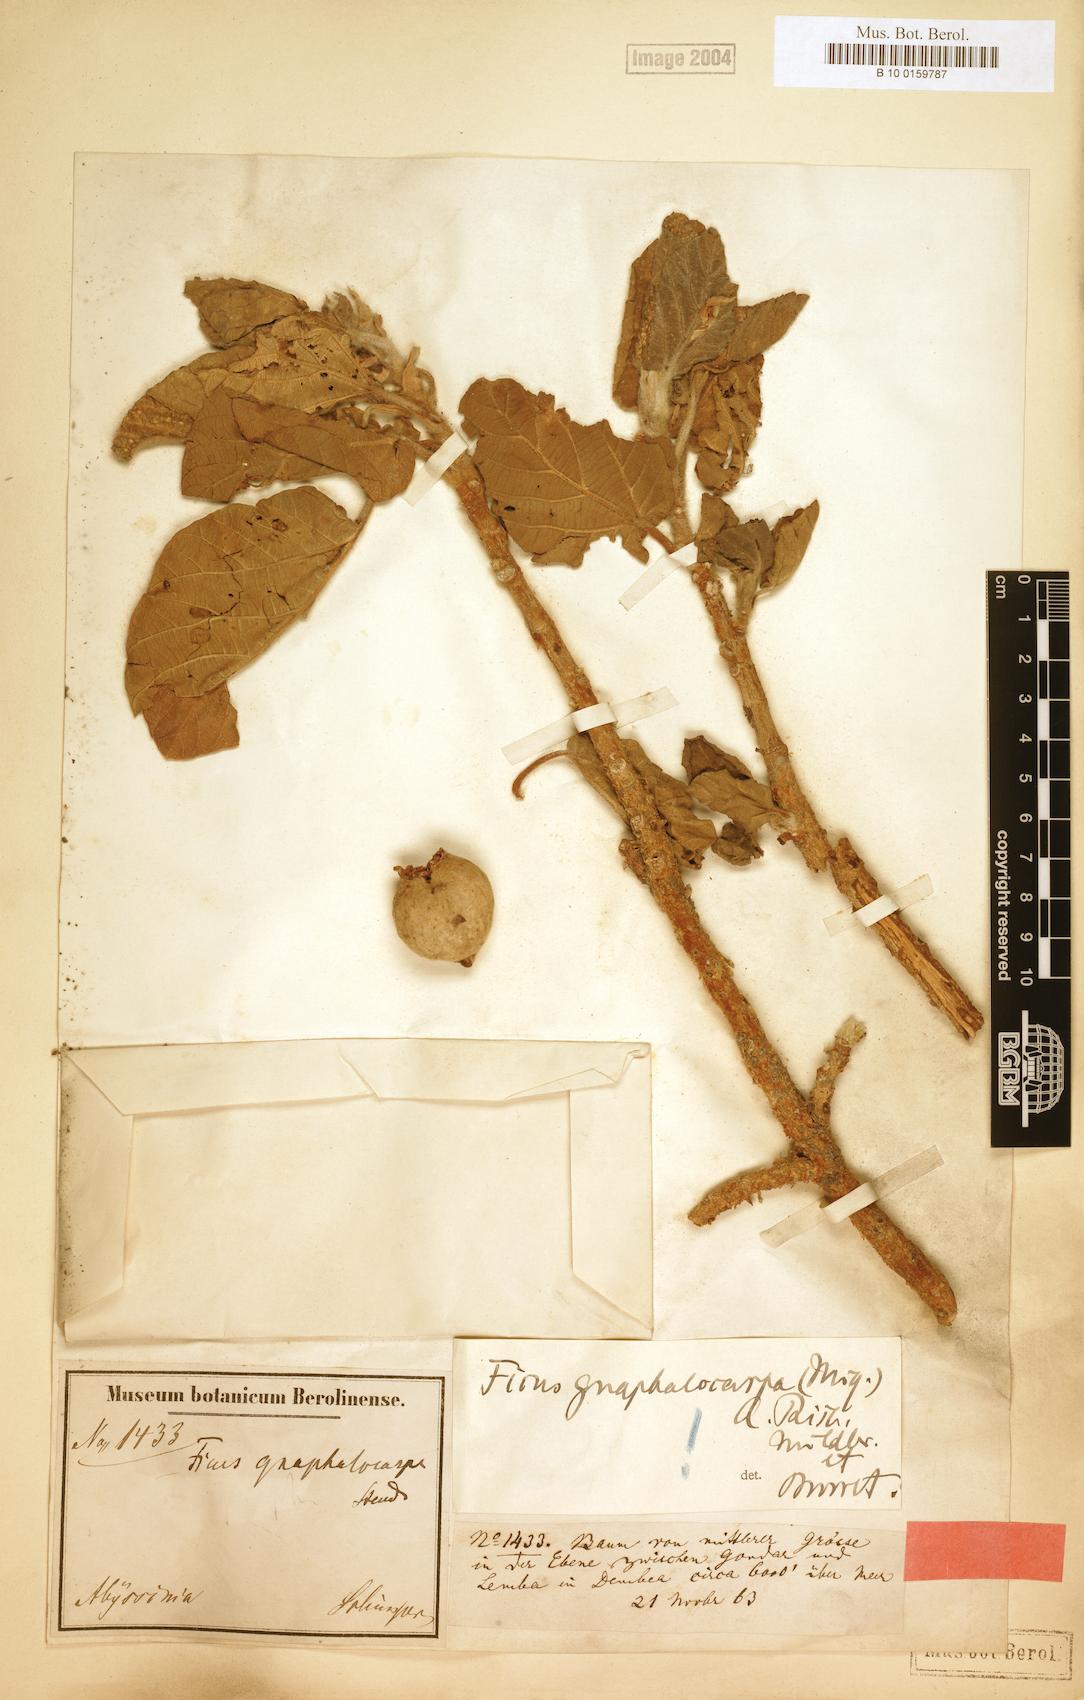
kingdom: Plantae
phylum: Tracheophyta
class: Magnoliopsida
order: Rosales
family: Moraceae
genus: Ficus
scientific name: Ficus sycomorus
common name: Sycomore
